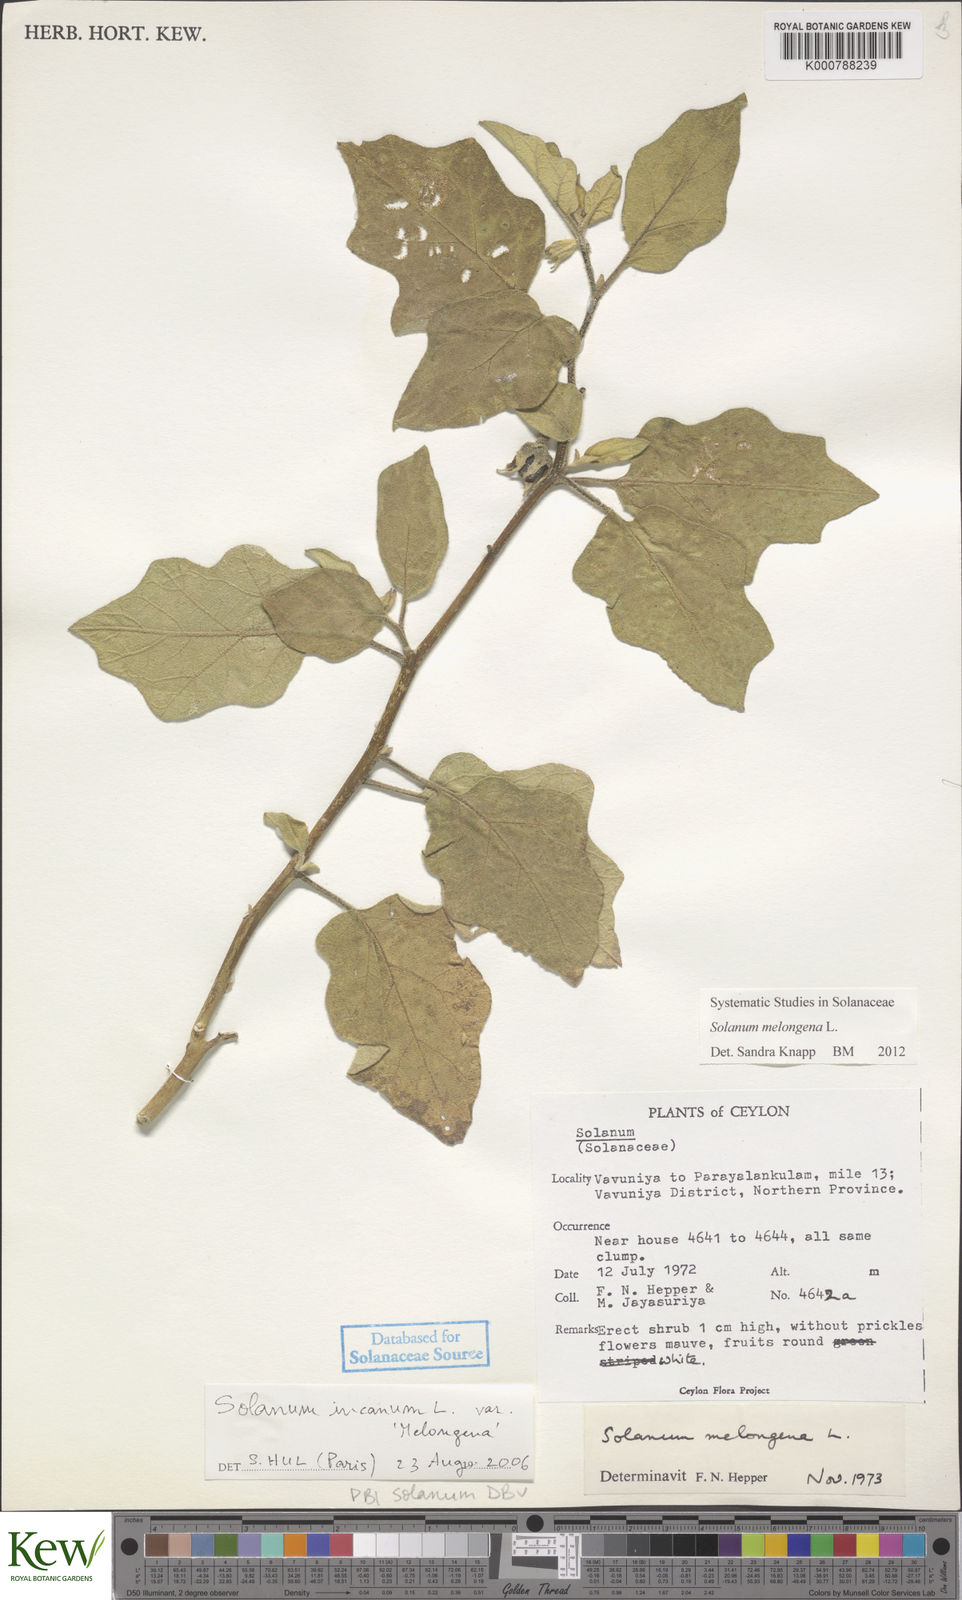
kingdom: Plantae
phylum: Tracheophyta
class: Magnoliopsida
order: Solanales
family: Solanaceae
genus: Solanum
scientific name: Solanum melongena
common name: Eggplant
